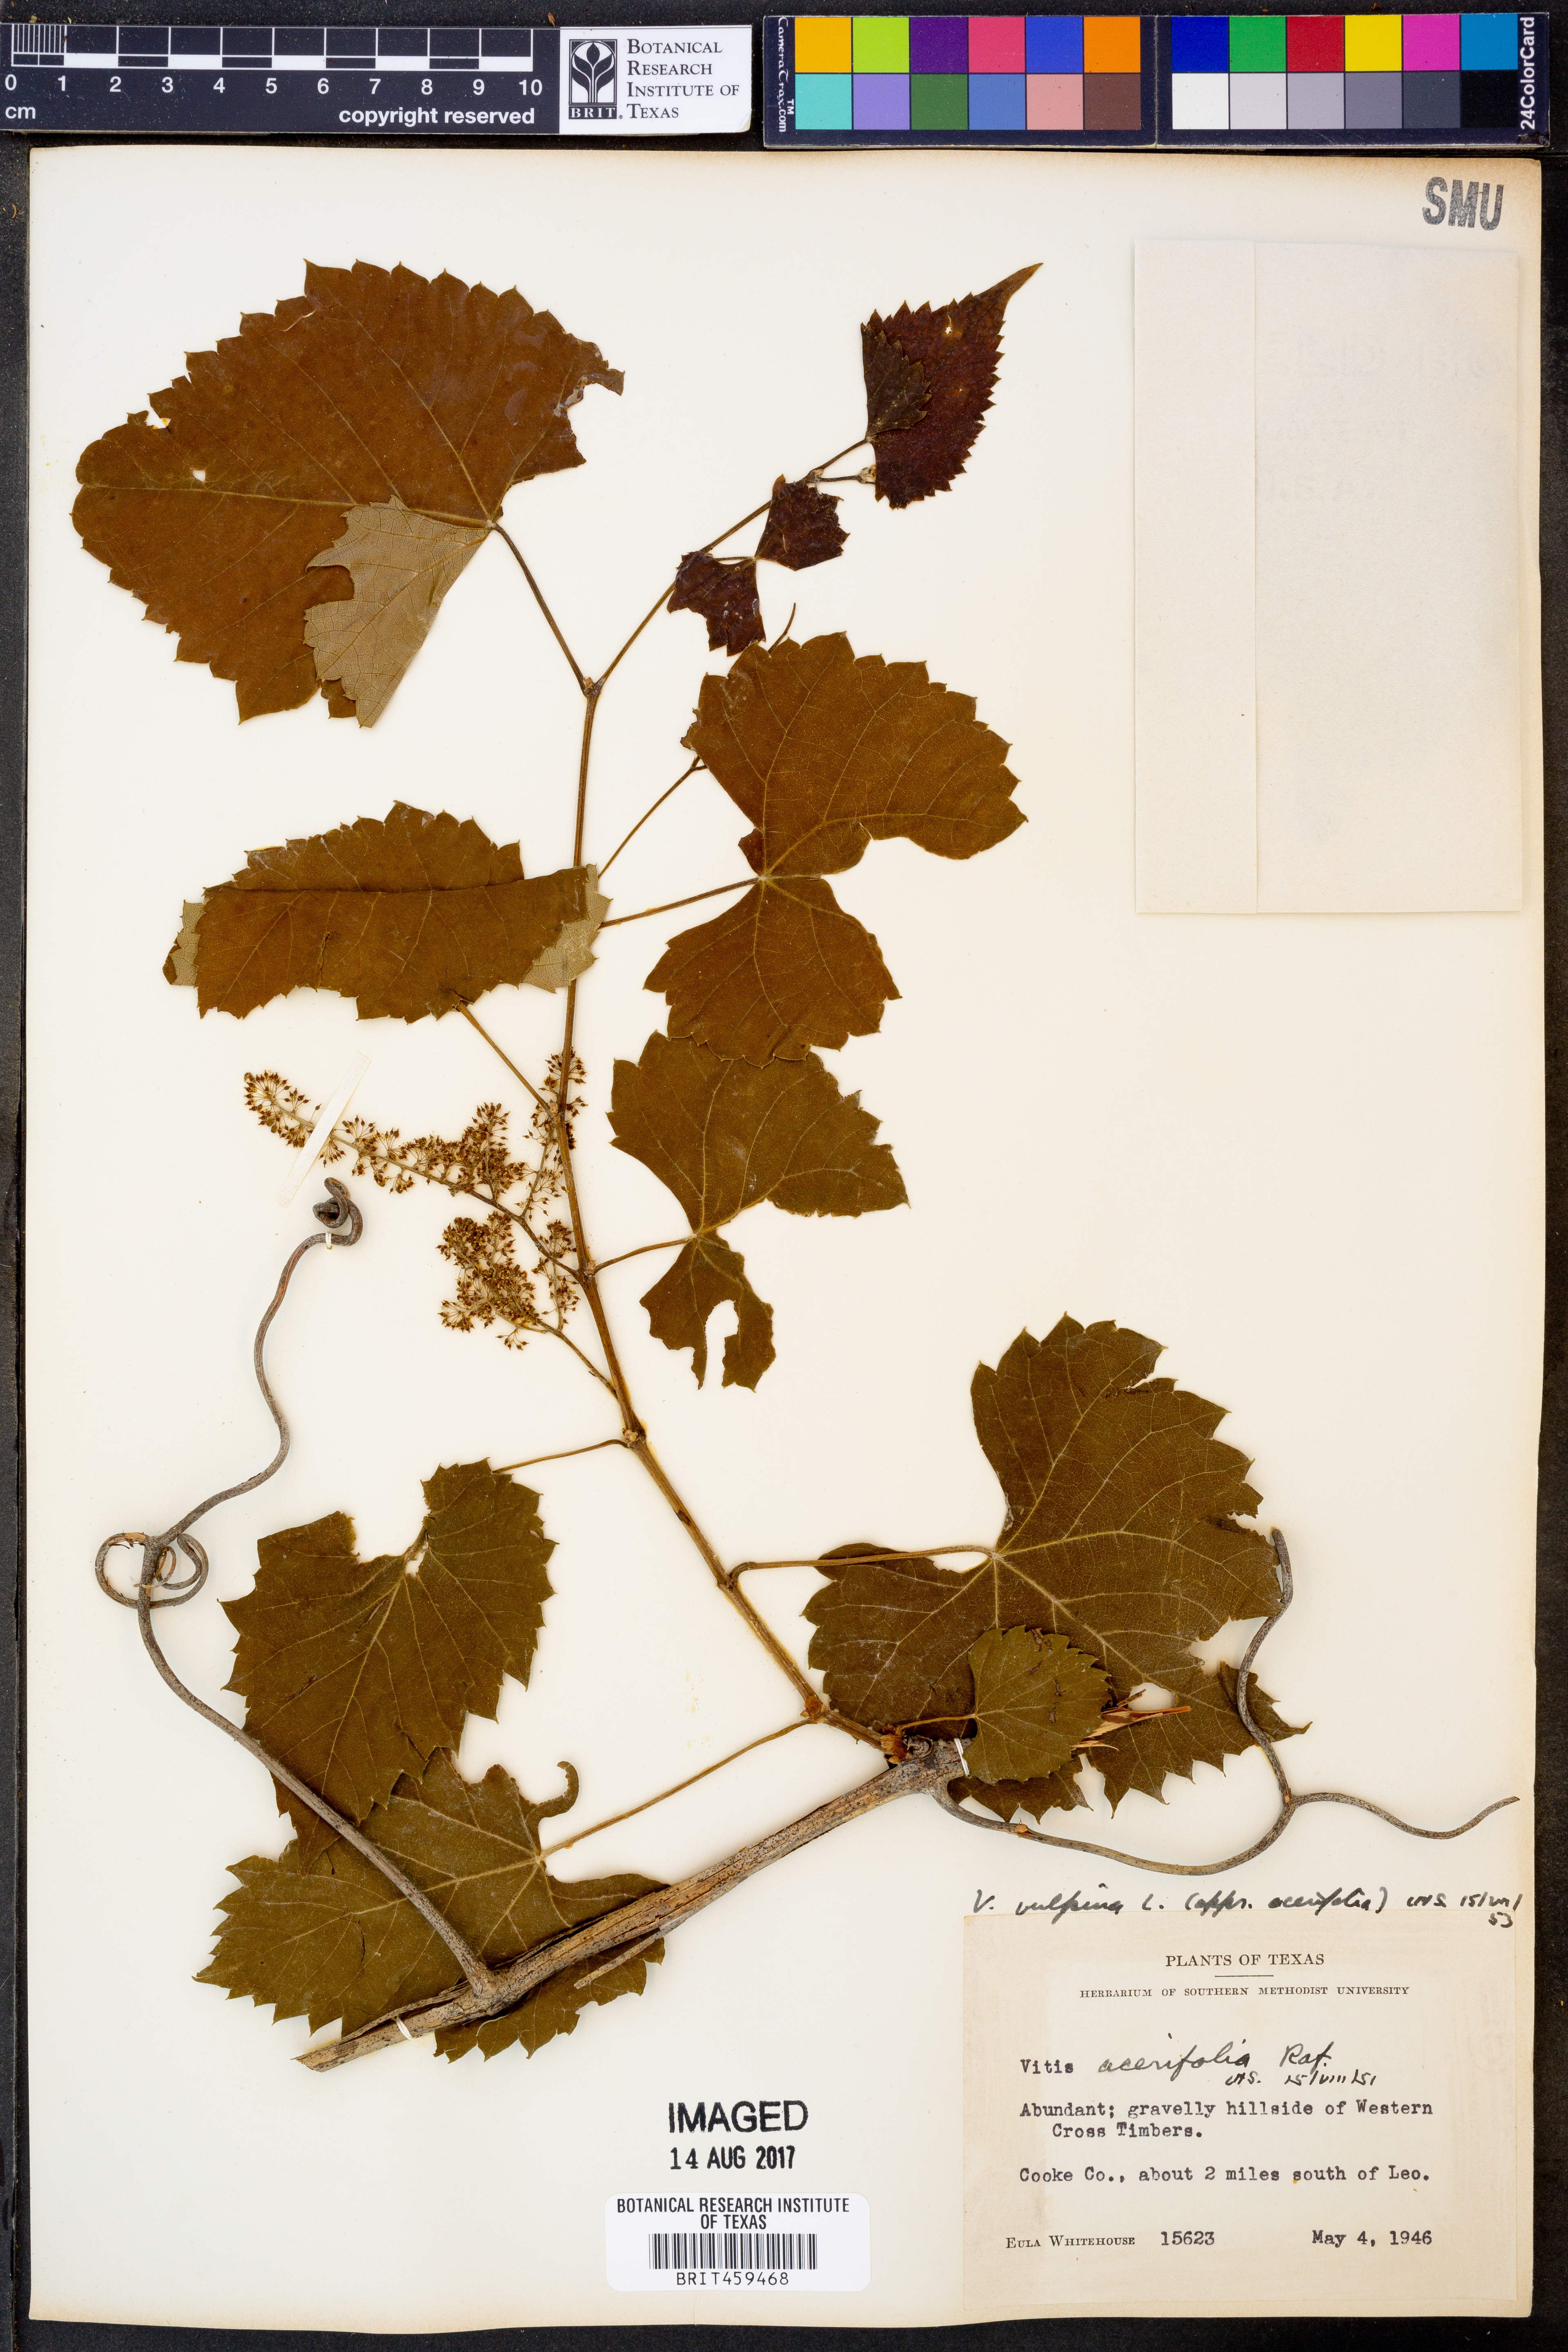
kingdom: Plantae
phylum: Tracheophyta
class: Magnoliopsida
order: Vitales
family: Vitaceae
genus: Vitis
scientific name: Vitis vulpina
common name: Frost grape
